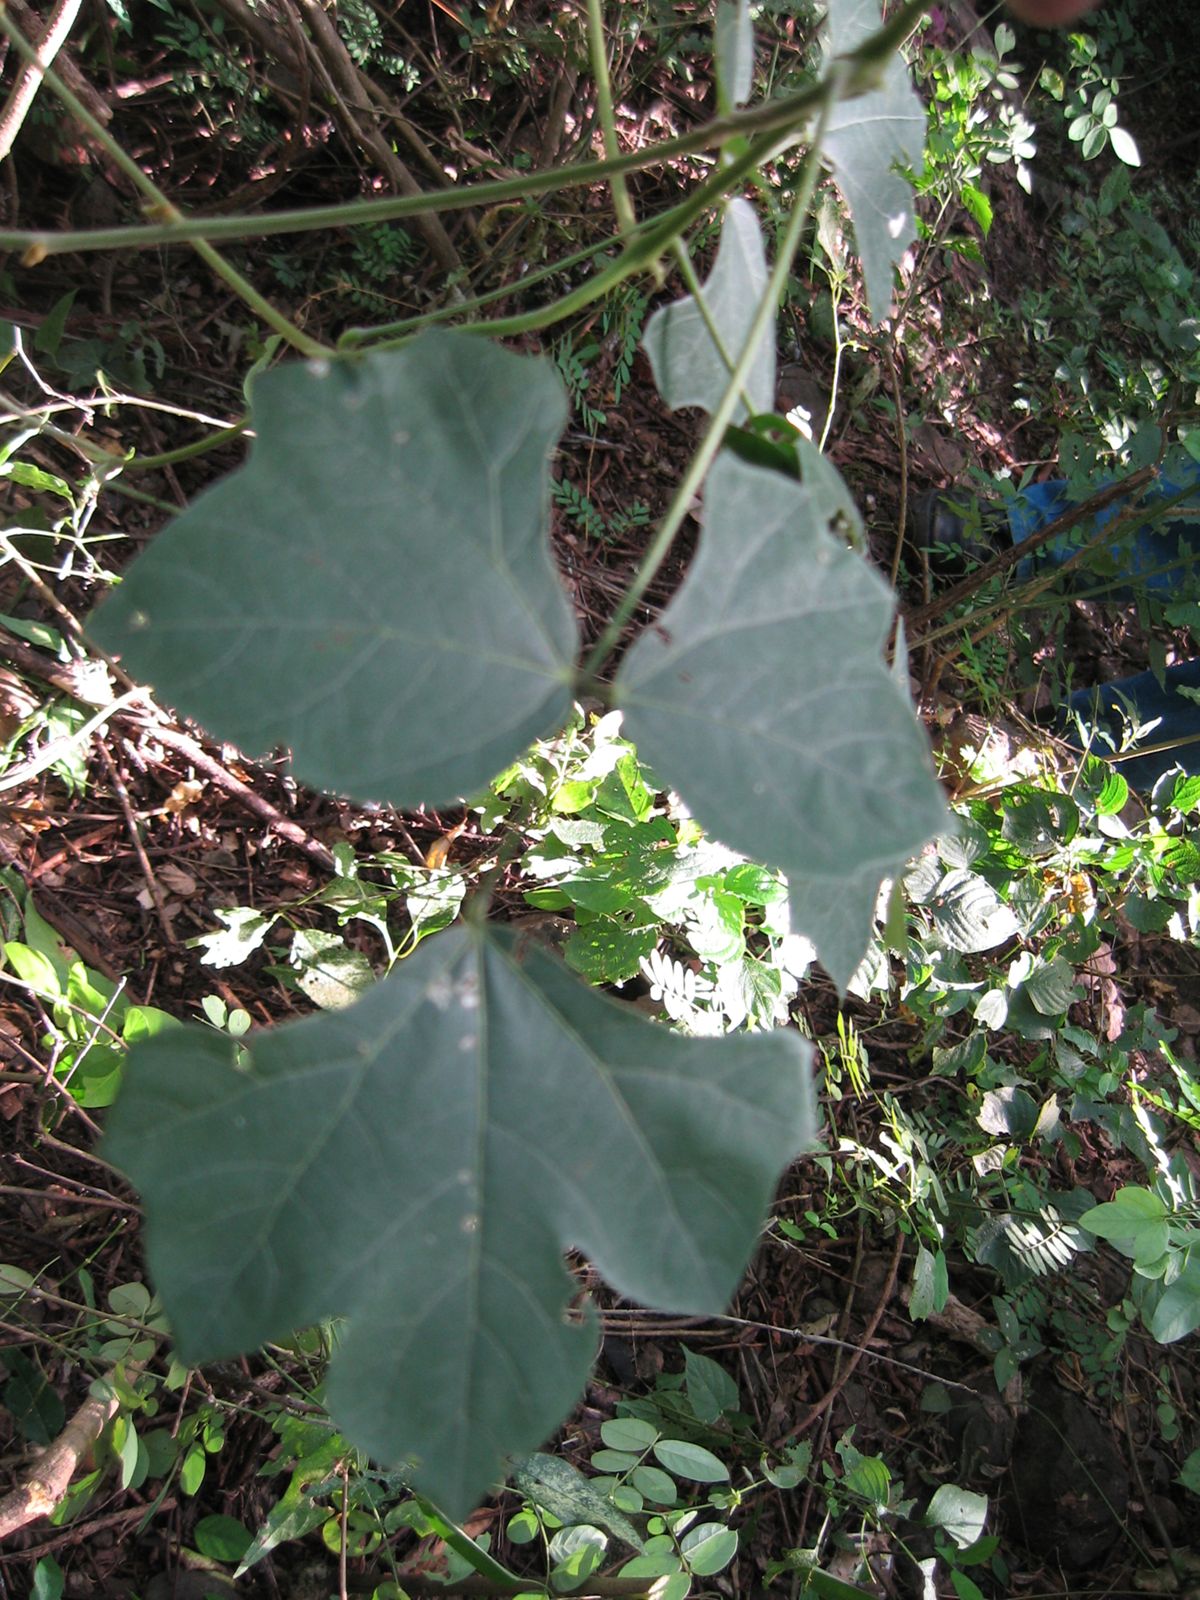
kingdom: Plantae
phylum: Tracheophyta
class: Magnoliopsida
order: Fabales
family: Fabaceae
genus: Pachyrhizus
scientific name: Pachyrhizus erosus
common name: Yam bean
